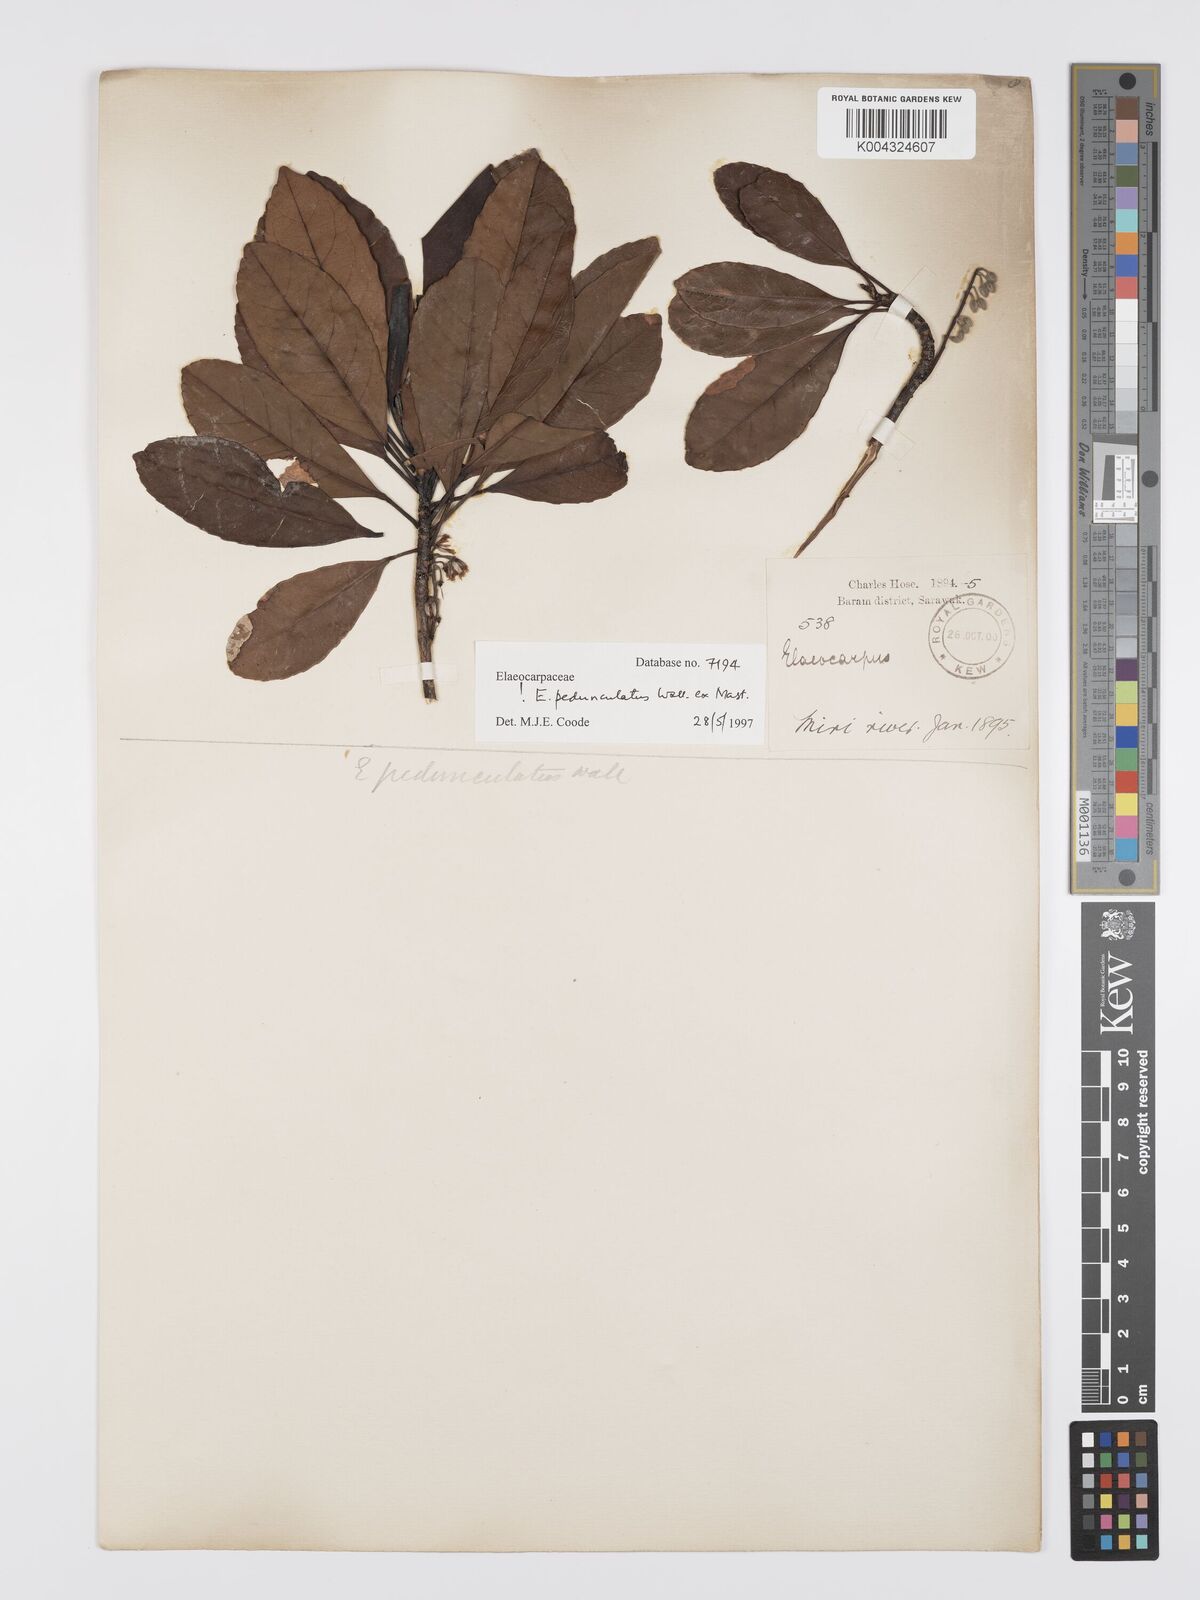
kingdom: Plantae
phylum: Tracheophyta
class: Magnoliopsida
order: Oxalidales
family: Elaeocarpaceae
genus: Elaeocarpus
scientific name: Elaeocarpus pedunculatus
